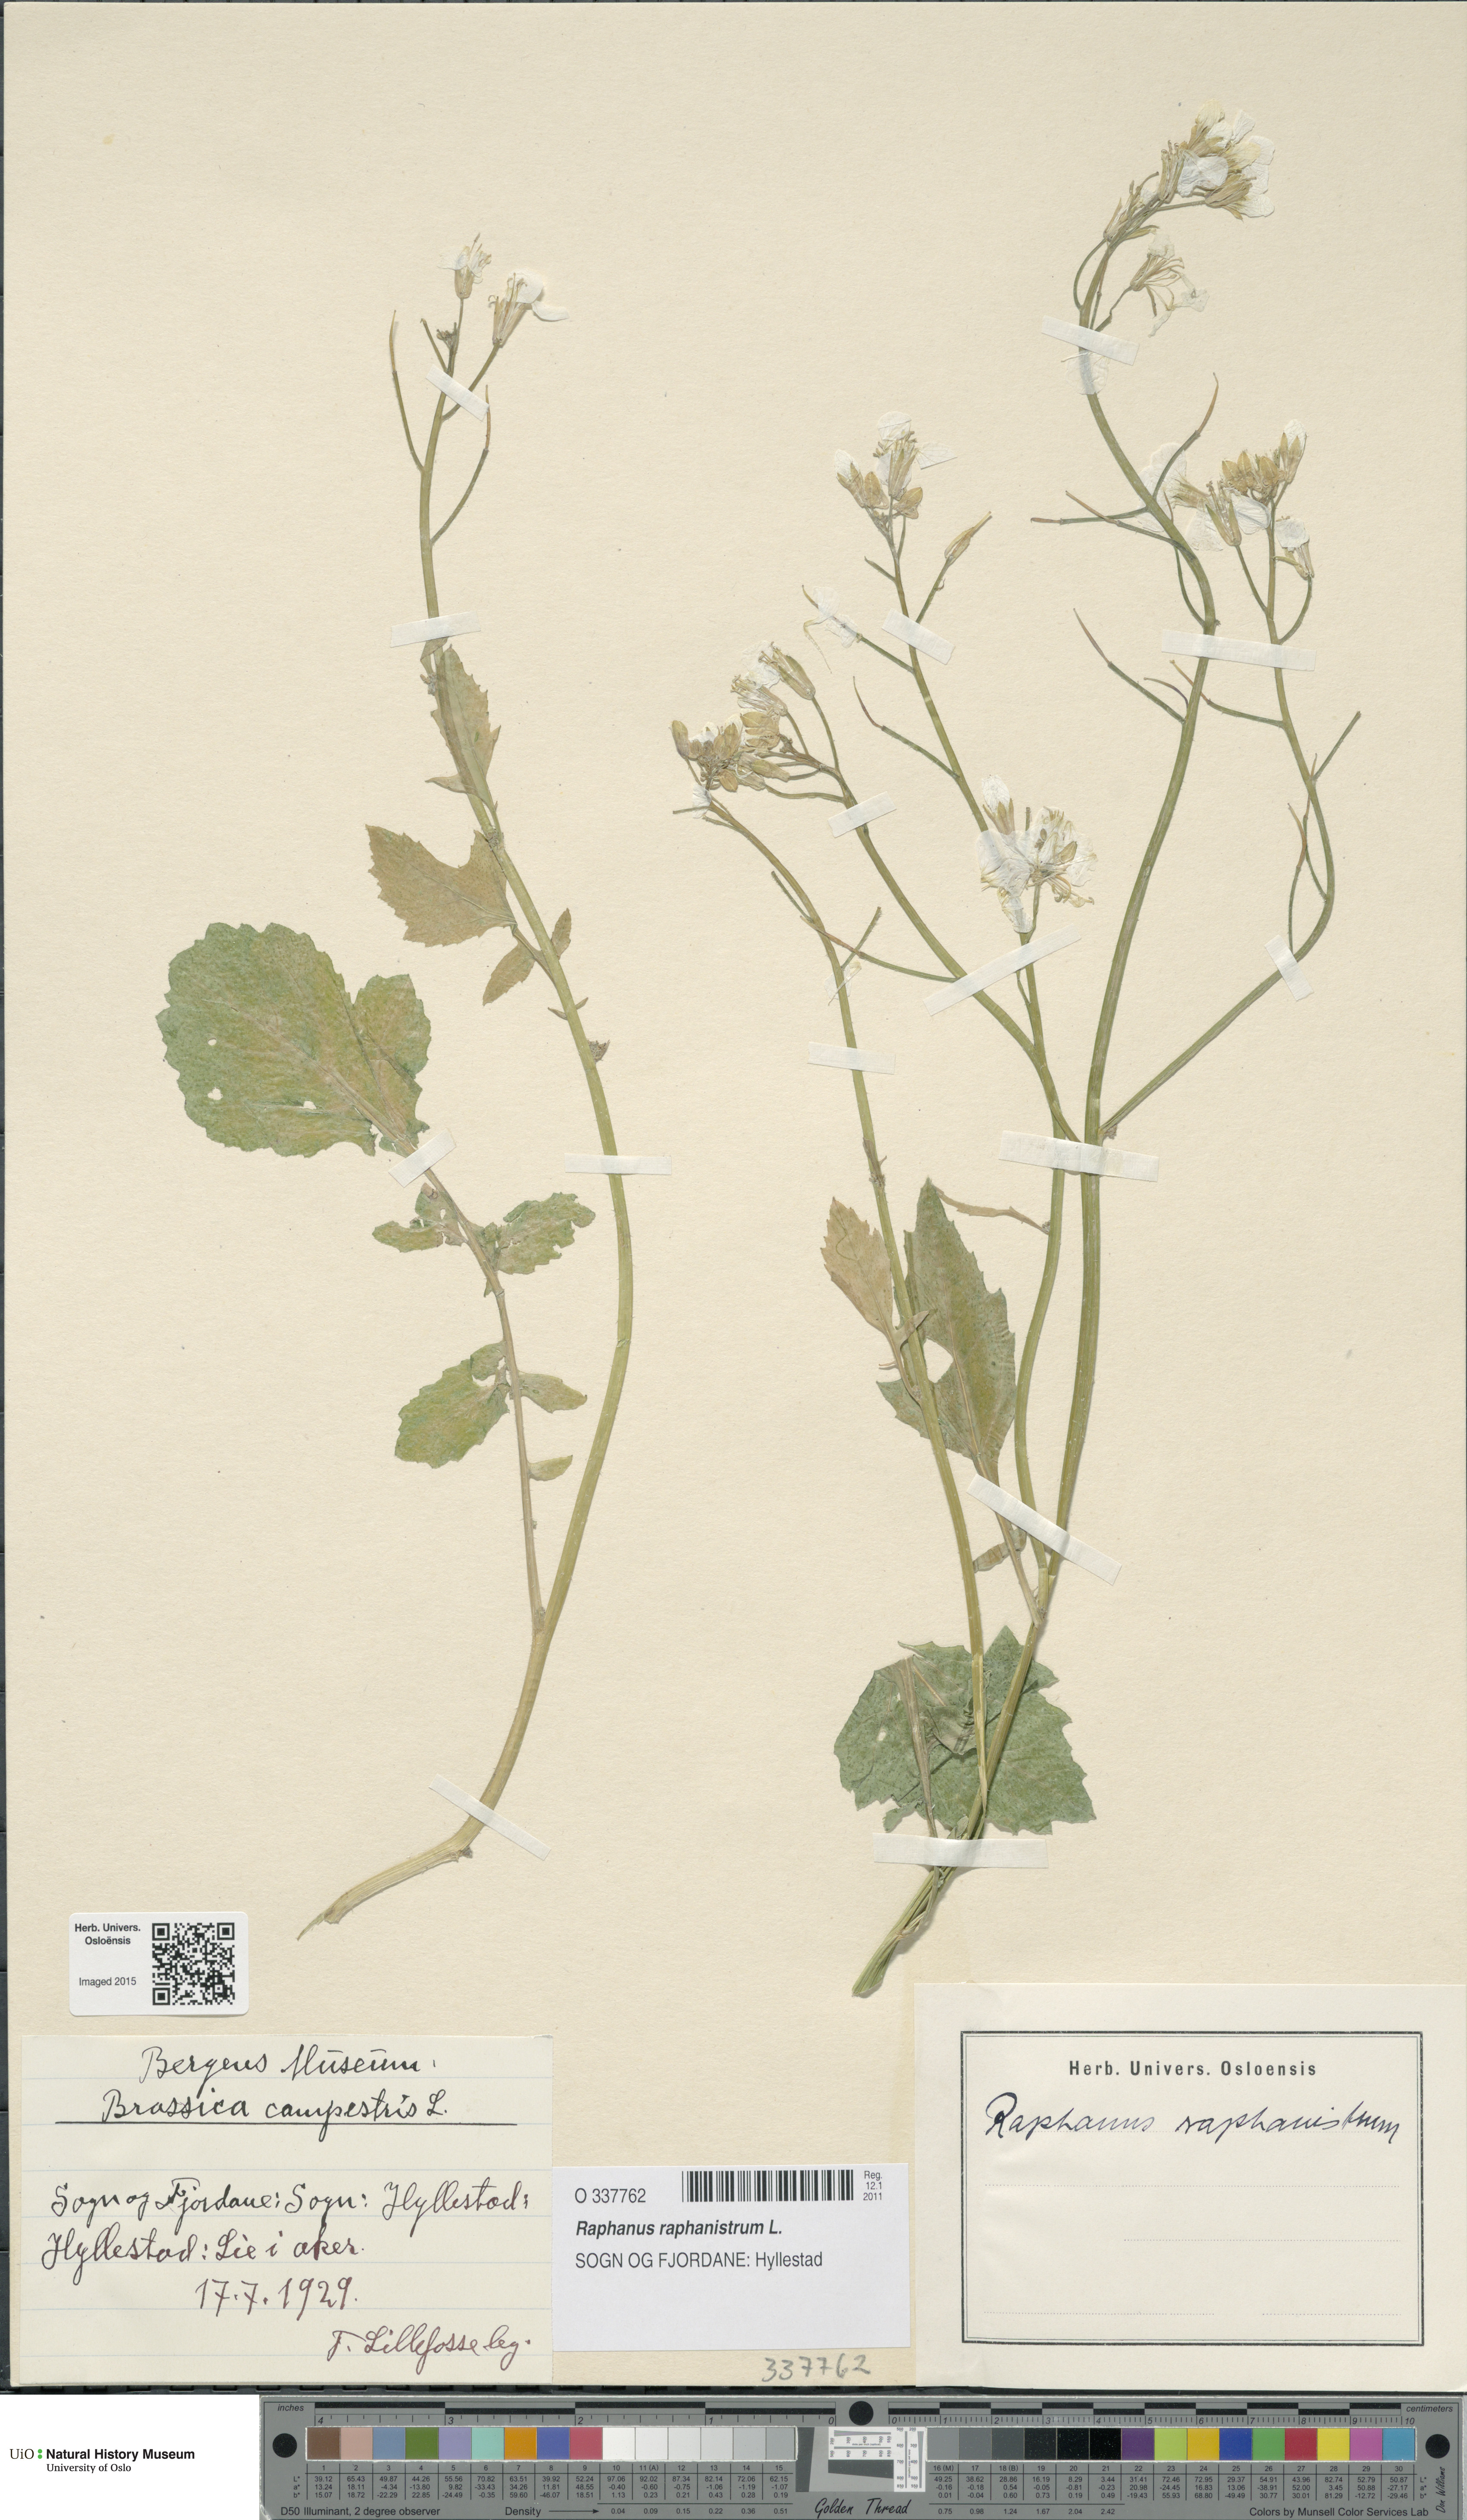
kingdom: Plantae
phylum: Tracheophyta
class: Magnoliopsida
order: Brassicales
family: Brassicaceae
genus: Raphanus
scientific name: Raphanus raphanistrum
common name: Wild radish
